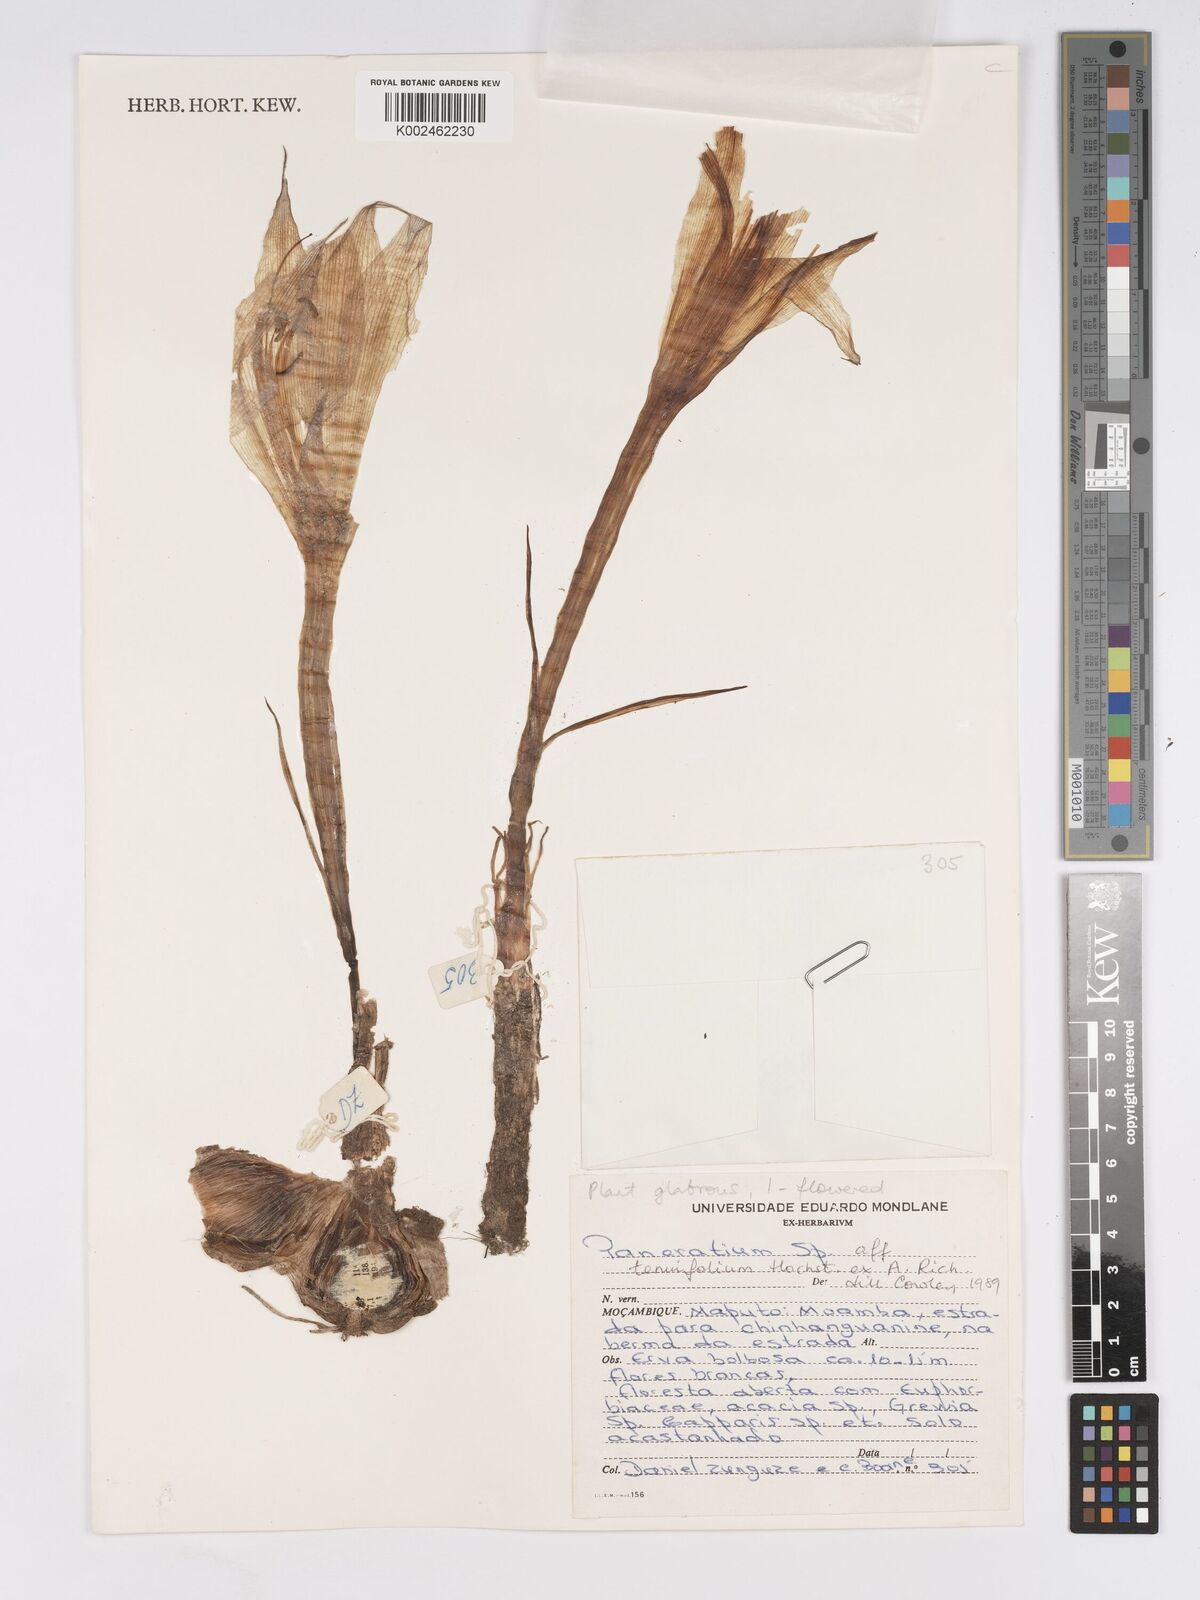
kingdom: Plantae
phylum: Tracheophyta
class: Liliopsida
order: Asparagales
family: Amaryllidaceae
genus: Pancratium
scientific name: Pancratium tenuifolium
